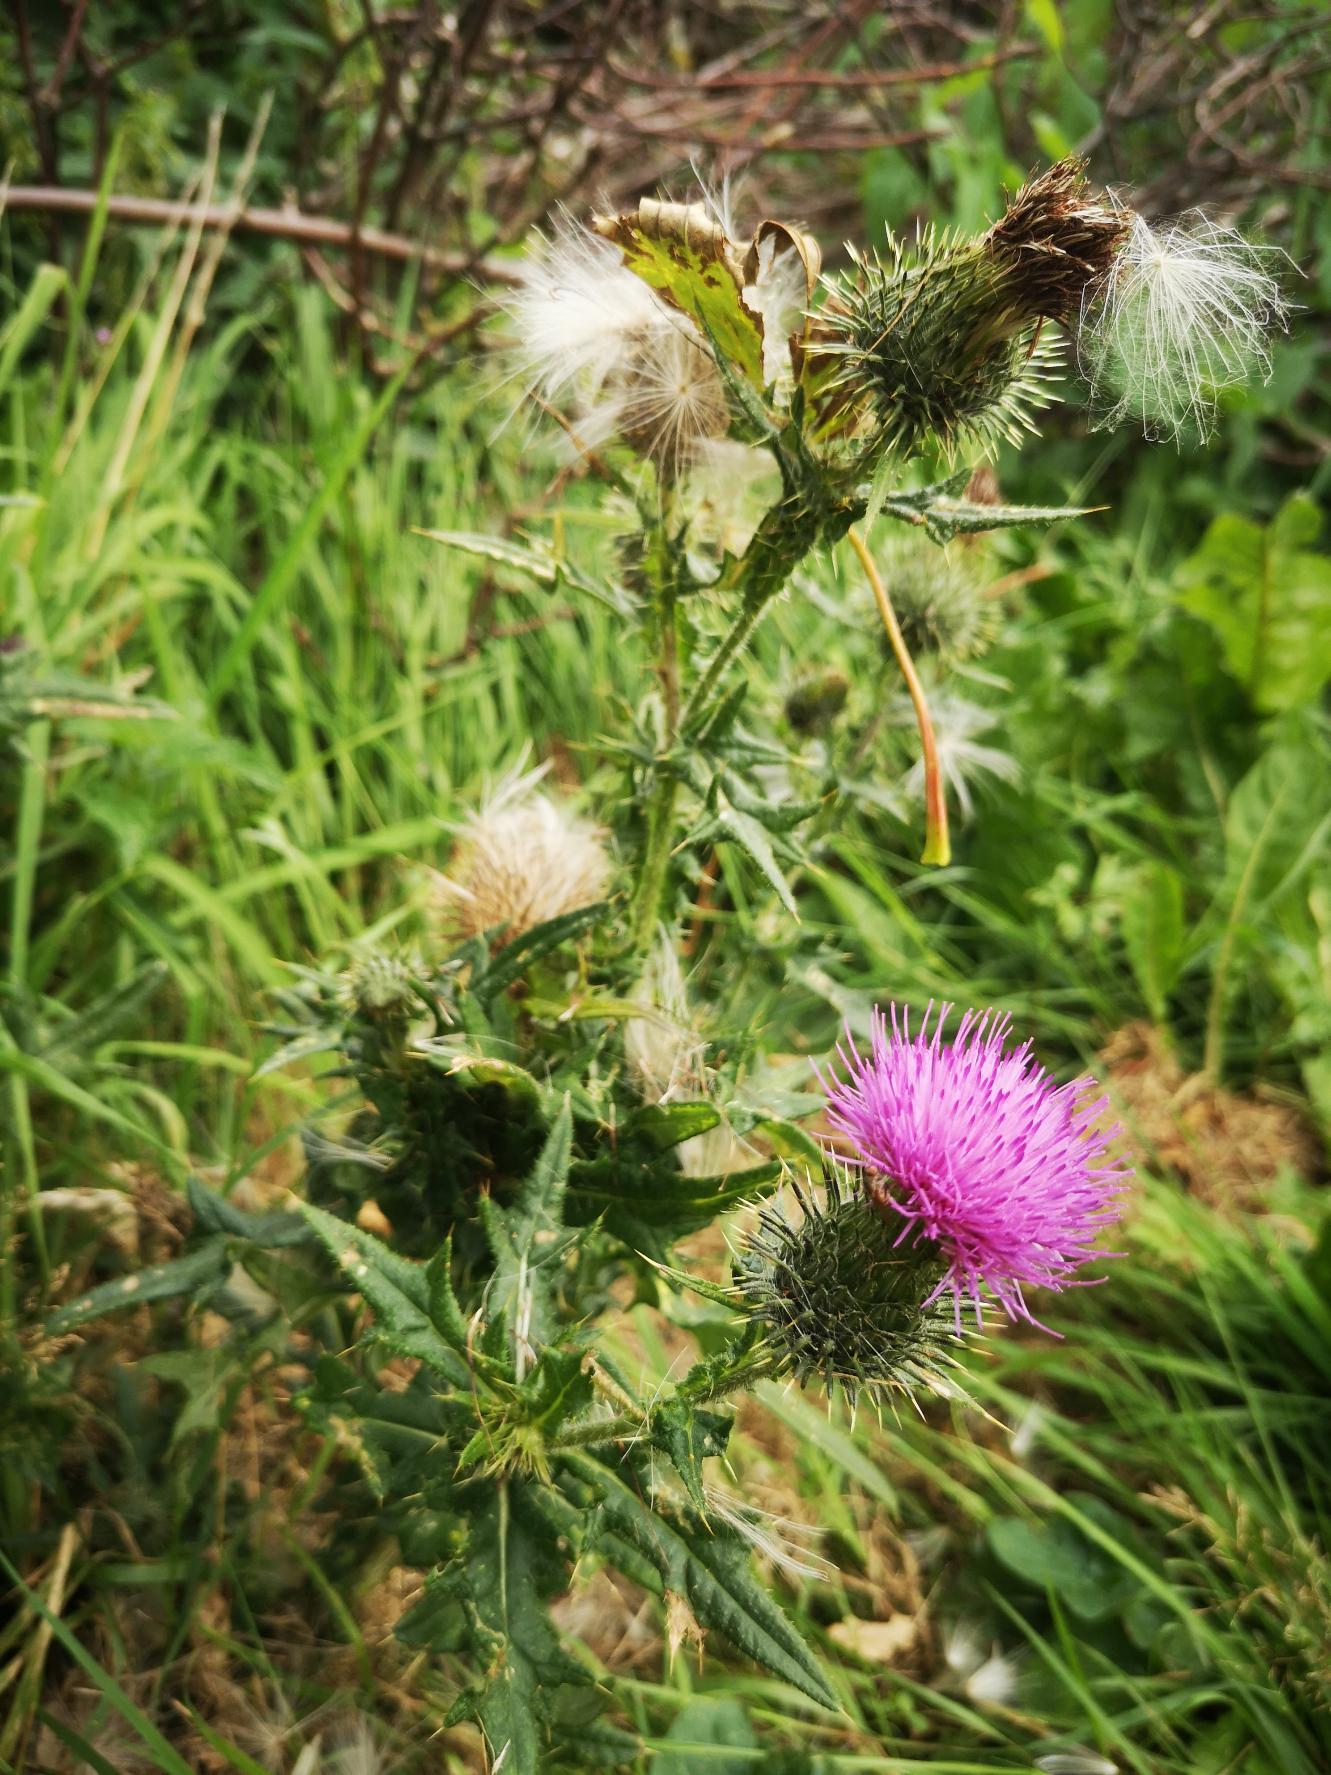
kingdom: Plantae
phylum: Tracheophyta
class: Magnoliopsida
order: Asterales
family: Asteraceae
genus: Cirsium
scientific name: Cirsium vulgare
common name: Horse-tidsel
